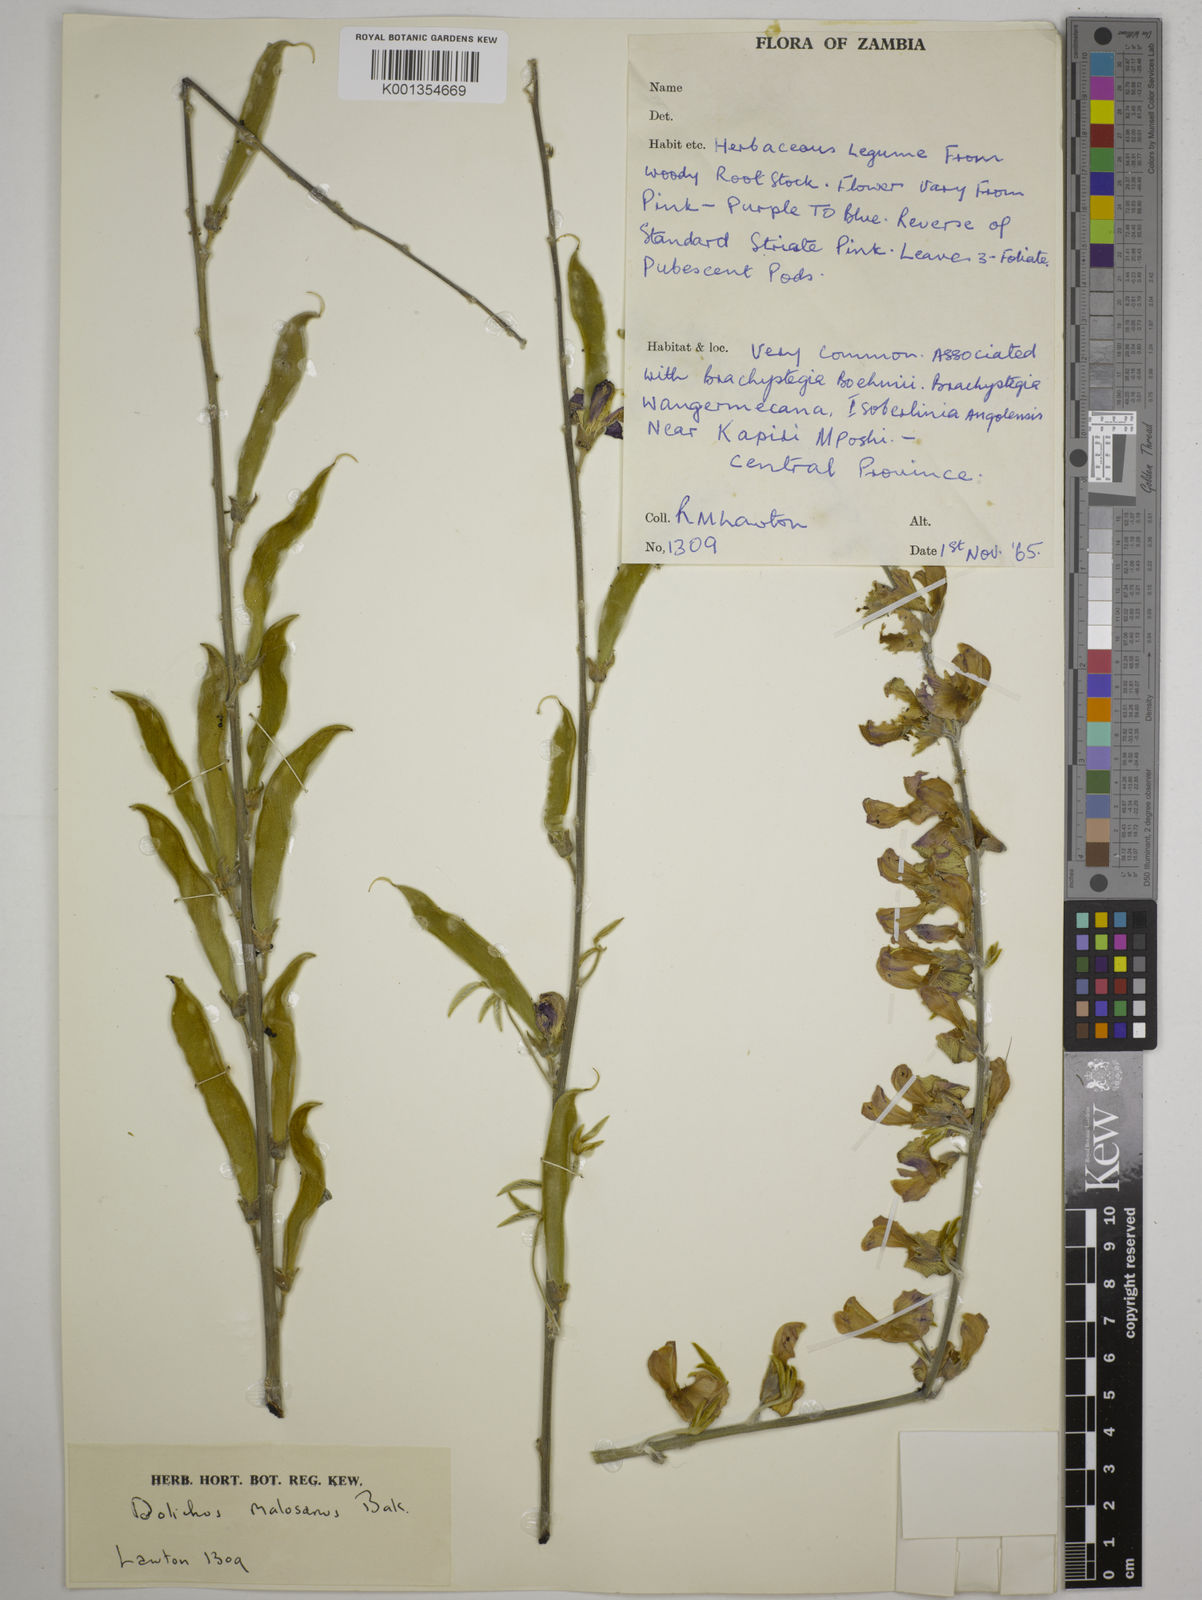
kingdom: Plantae
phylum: Tracheophyta
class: Magnoliopsida
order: Fabales
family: Fabaceae
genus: Dolichos
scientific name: Dolichos kilimandscharicus
